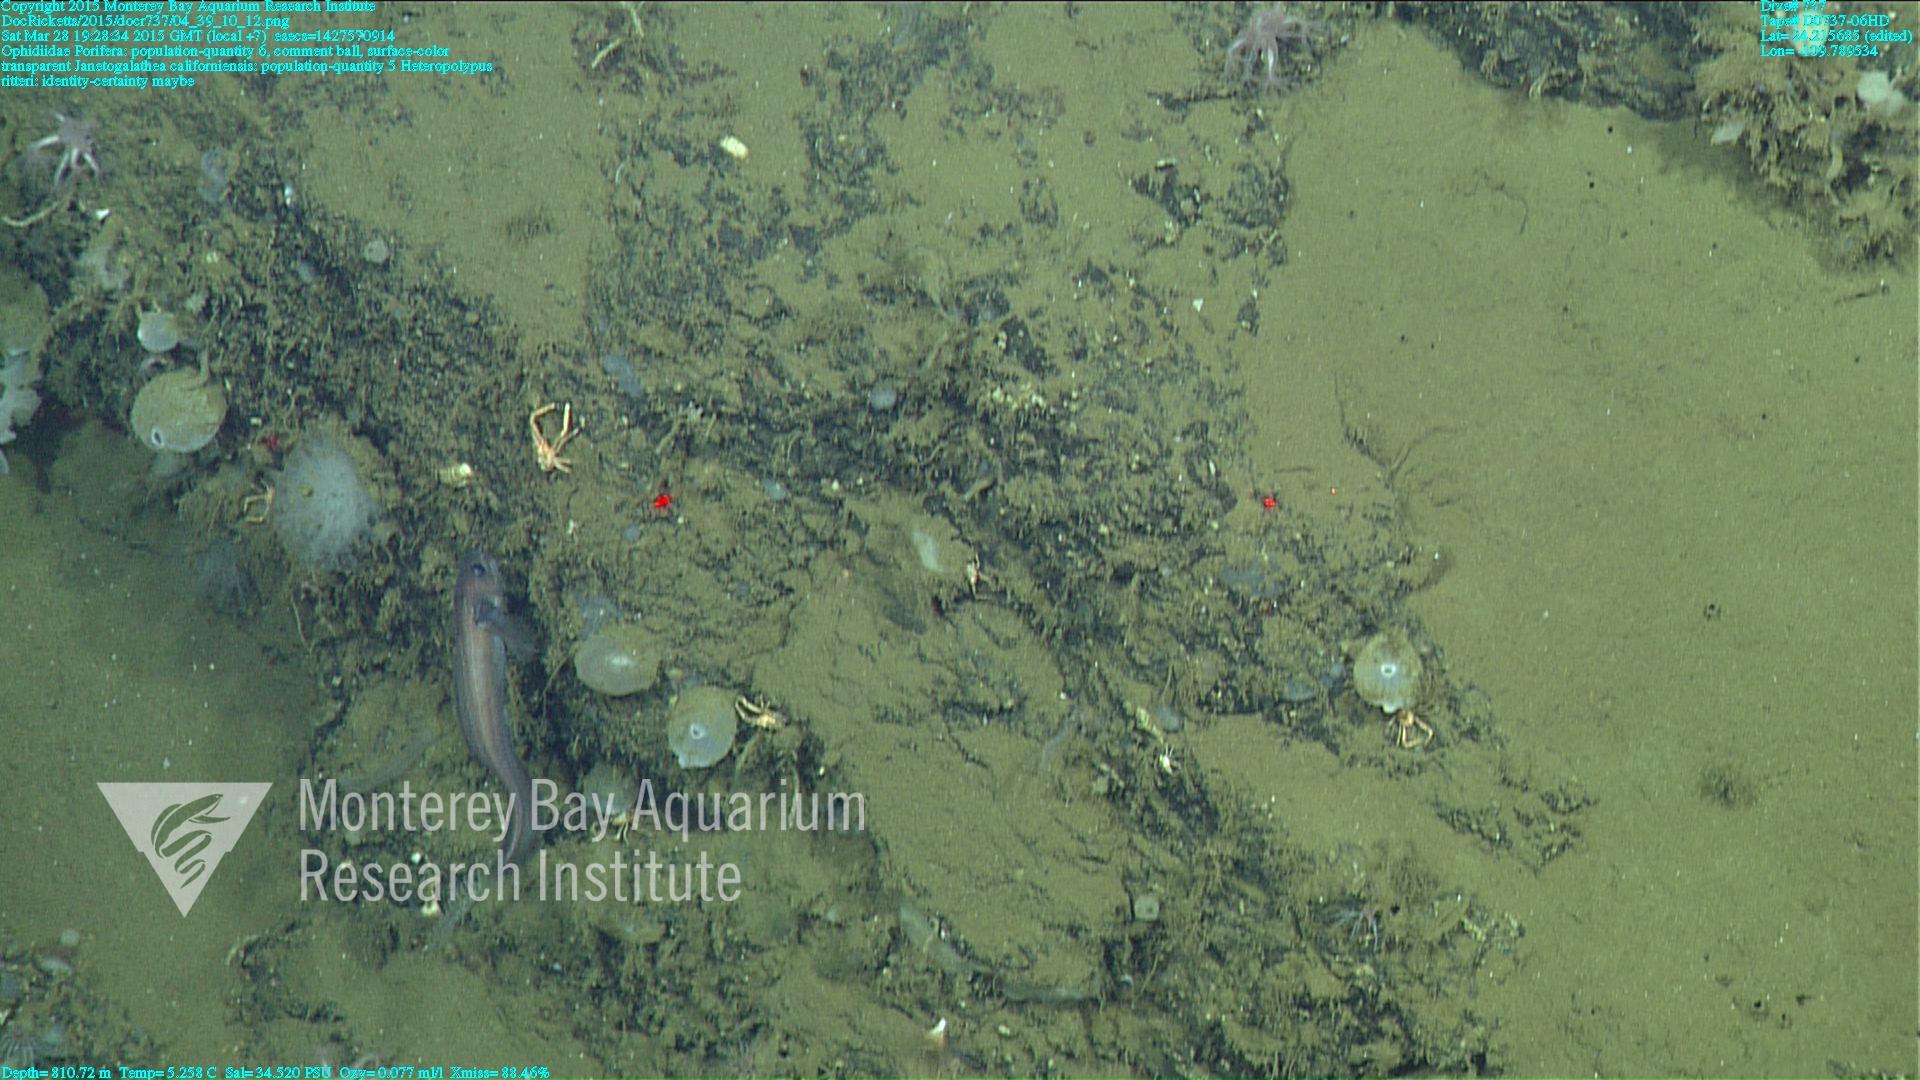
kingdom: Animalia
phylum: Cnidaria
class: Anthozoa
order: Scleralcyonacea
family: Coralliidae
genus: Heteropolypus
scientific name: Heteropolypus ritteri
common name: Ritter's soft coral
